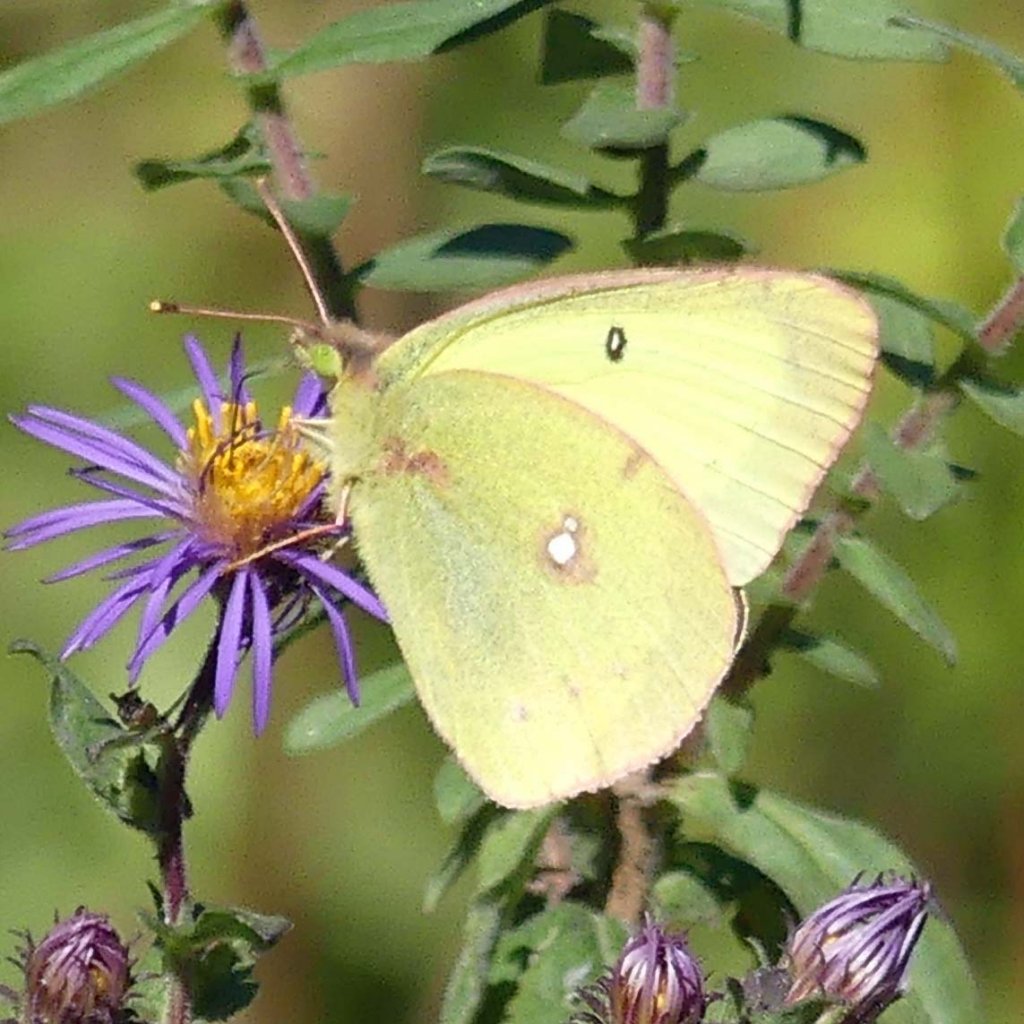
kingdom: Animalia
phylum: Arthropoda
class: Insecta
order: Lepidoptera
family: Pieridae
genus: Colias
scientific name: Colias philodice
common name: Clouded Sulphur
